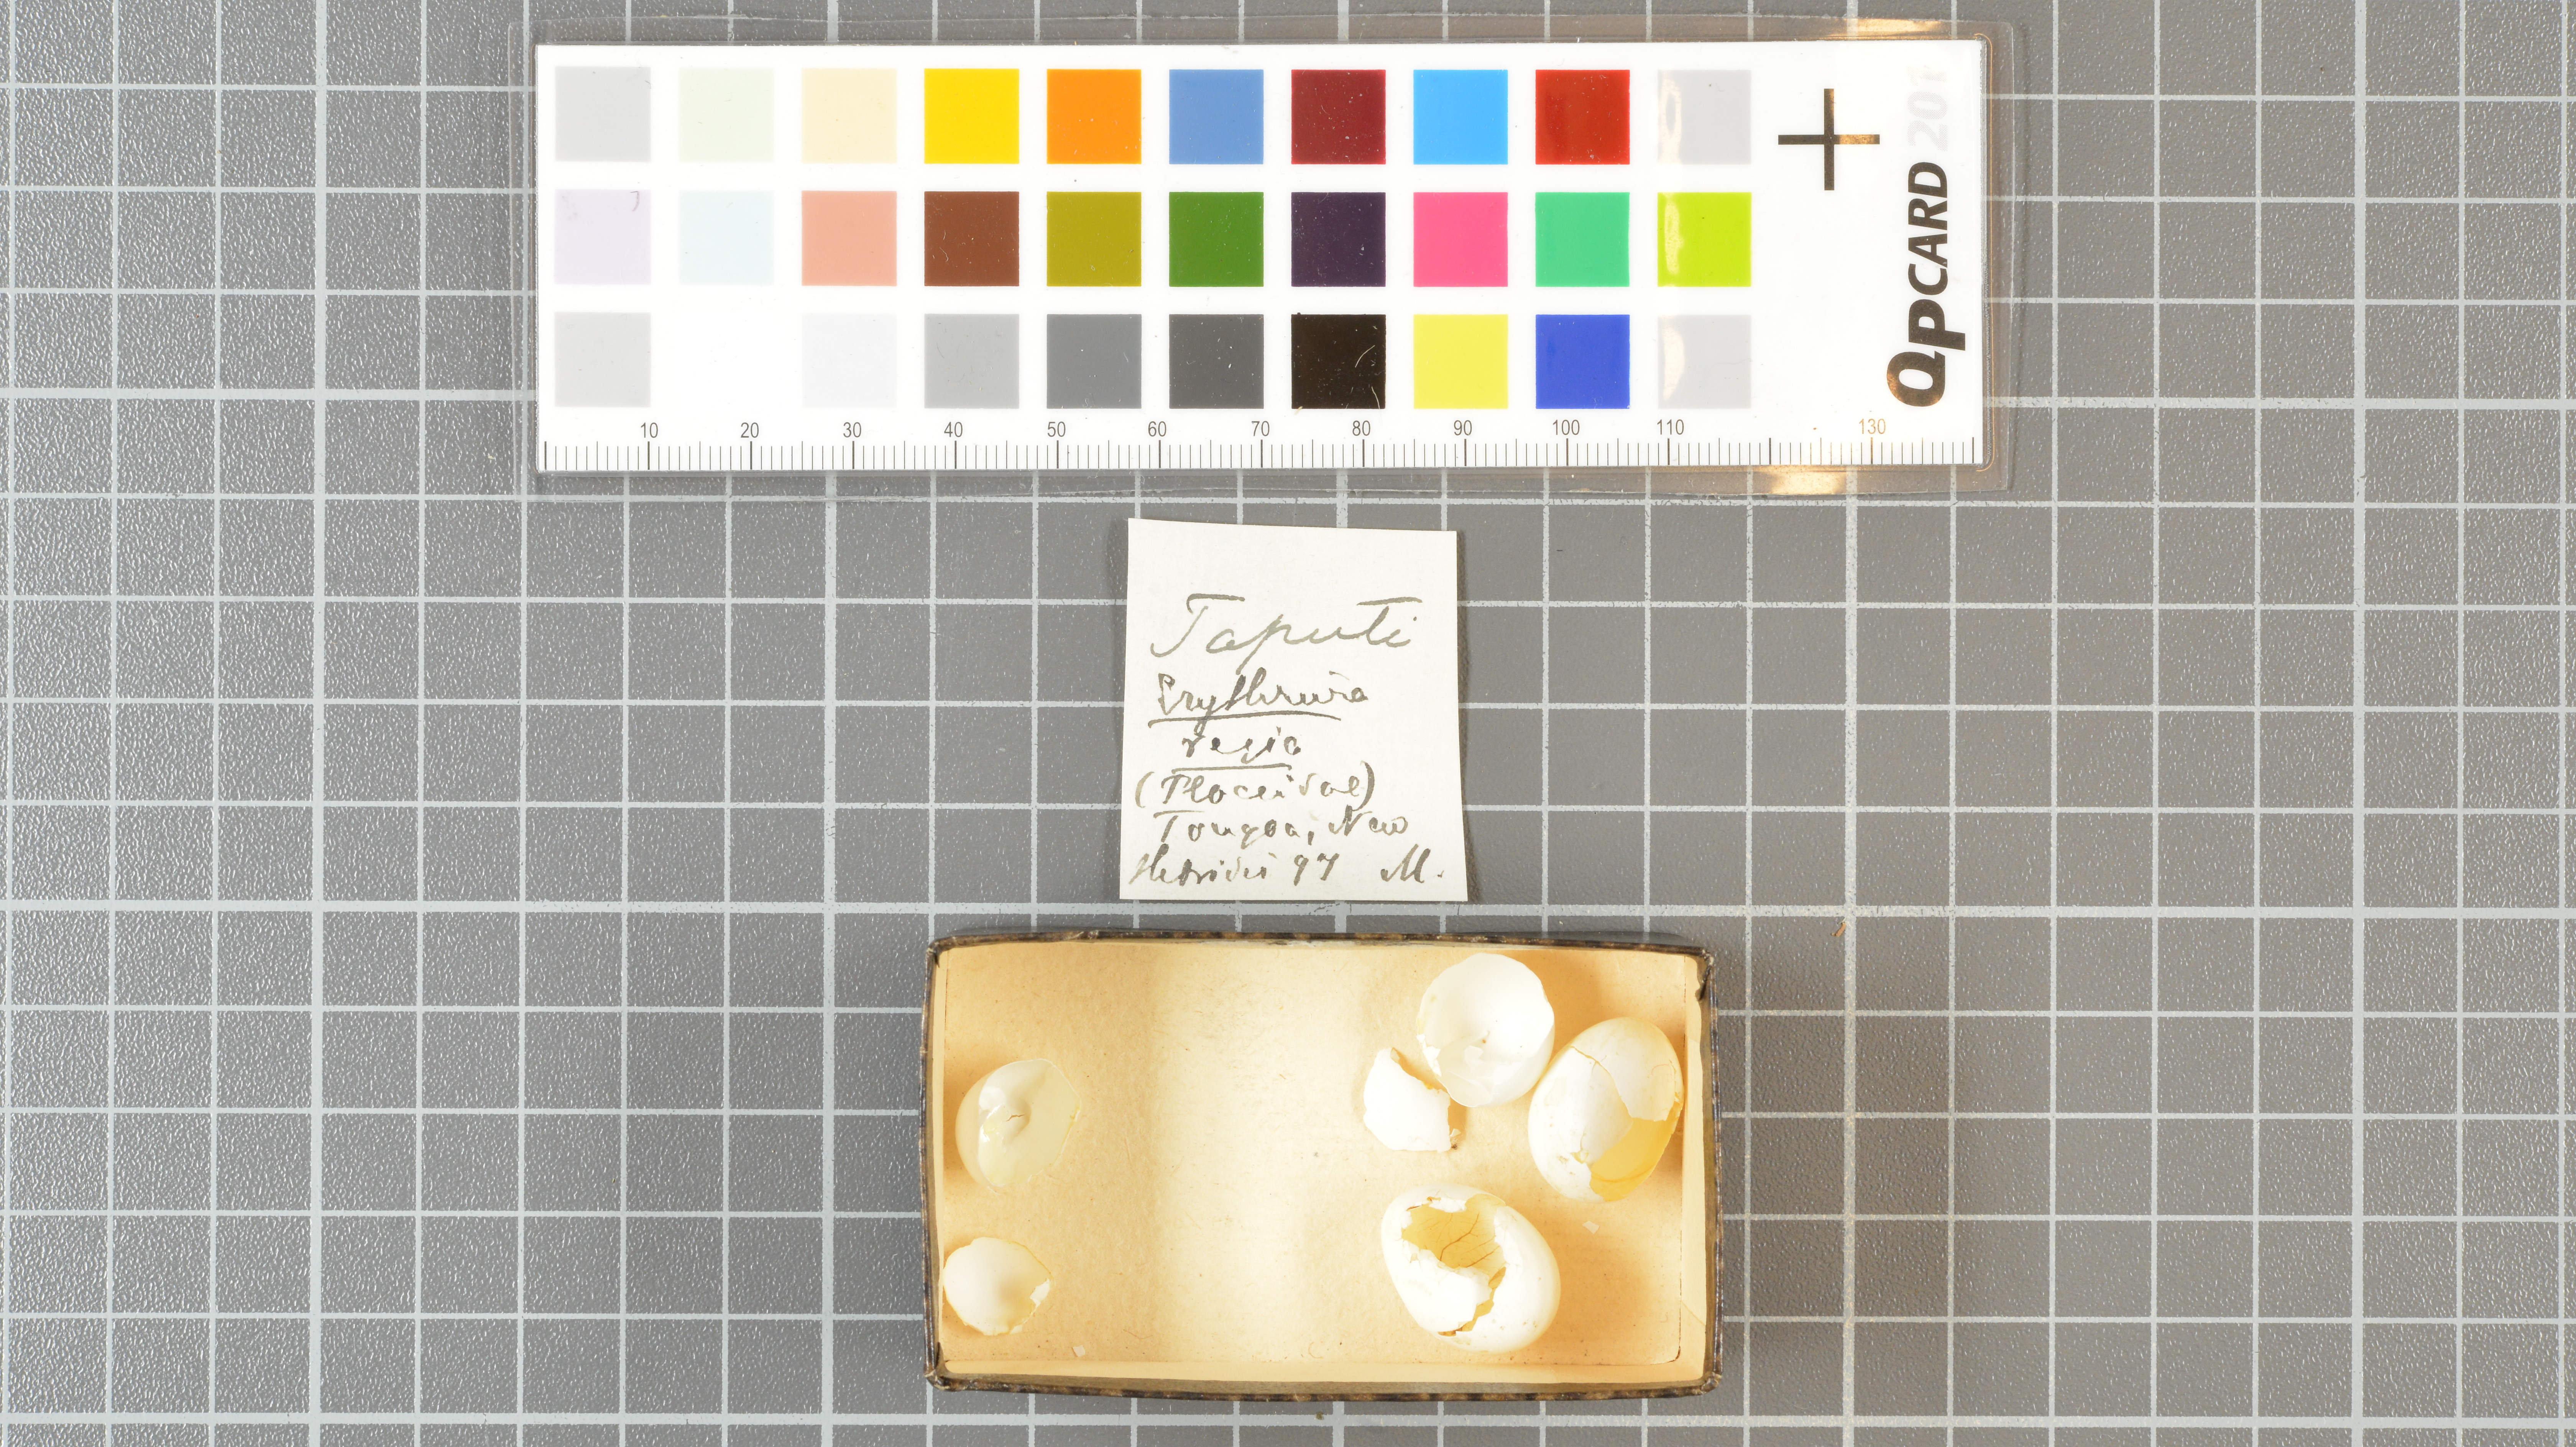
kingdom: Animalia
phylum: Chordata
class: Aves
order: Passeriformes
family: Estrildidae
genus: Erythrura
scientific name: Erythrura regia
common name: Royal parrotfinch
